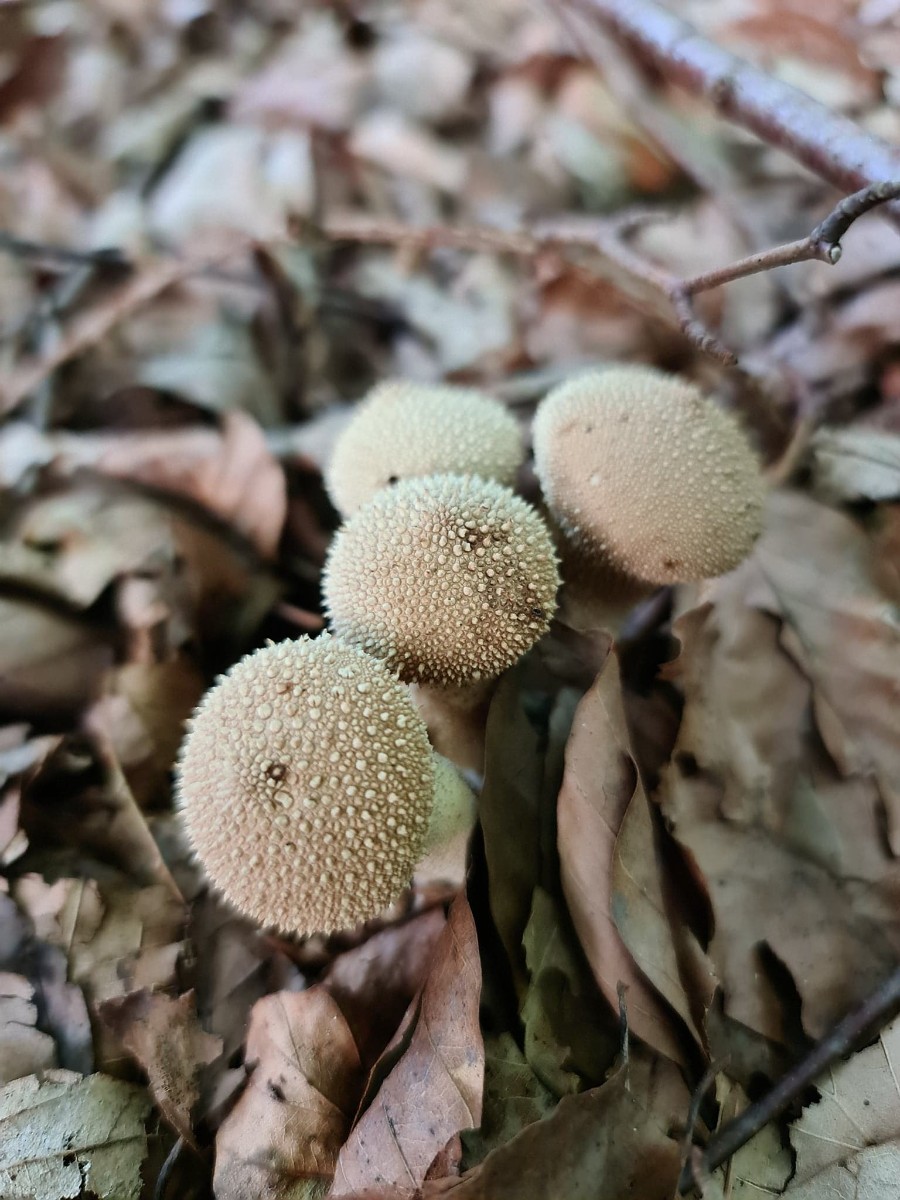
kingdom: Fungi
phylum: Basidiomycota
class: Agaricomycetes
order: Agaricales
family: Lycoperdaceae
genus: Lycoperdon
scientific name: Lycoperdon perlatum
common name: krystal-støvbold
